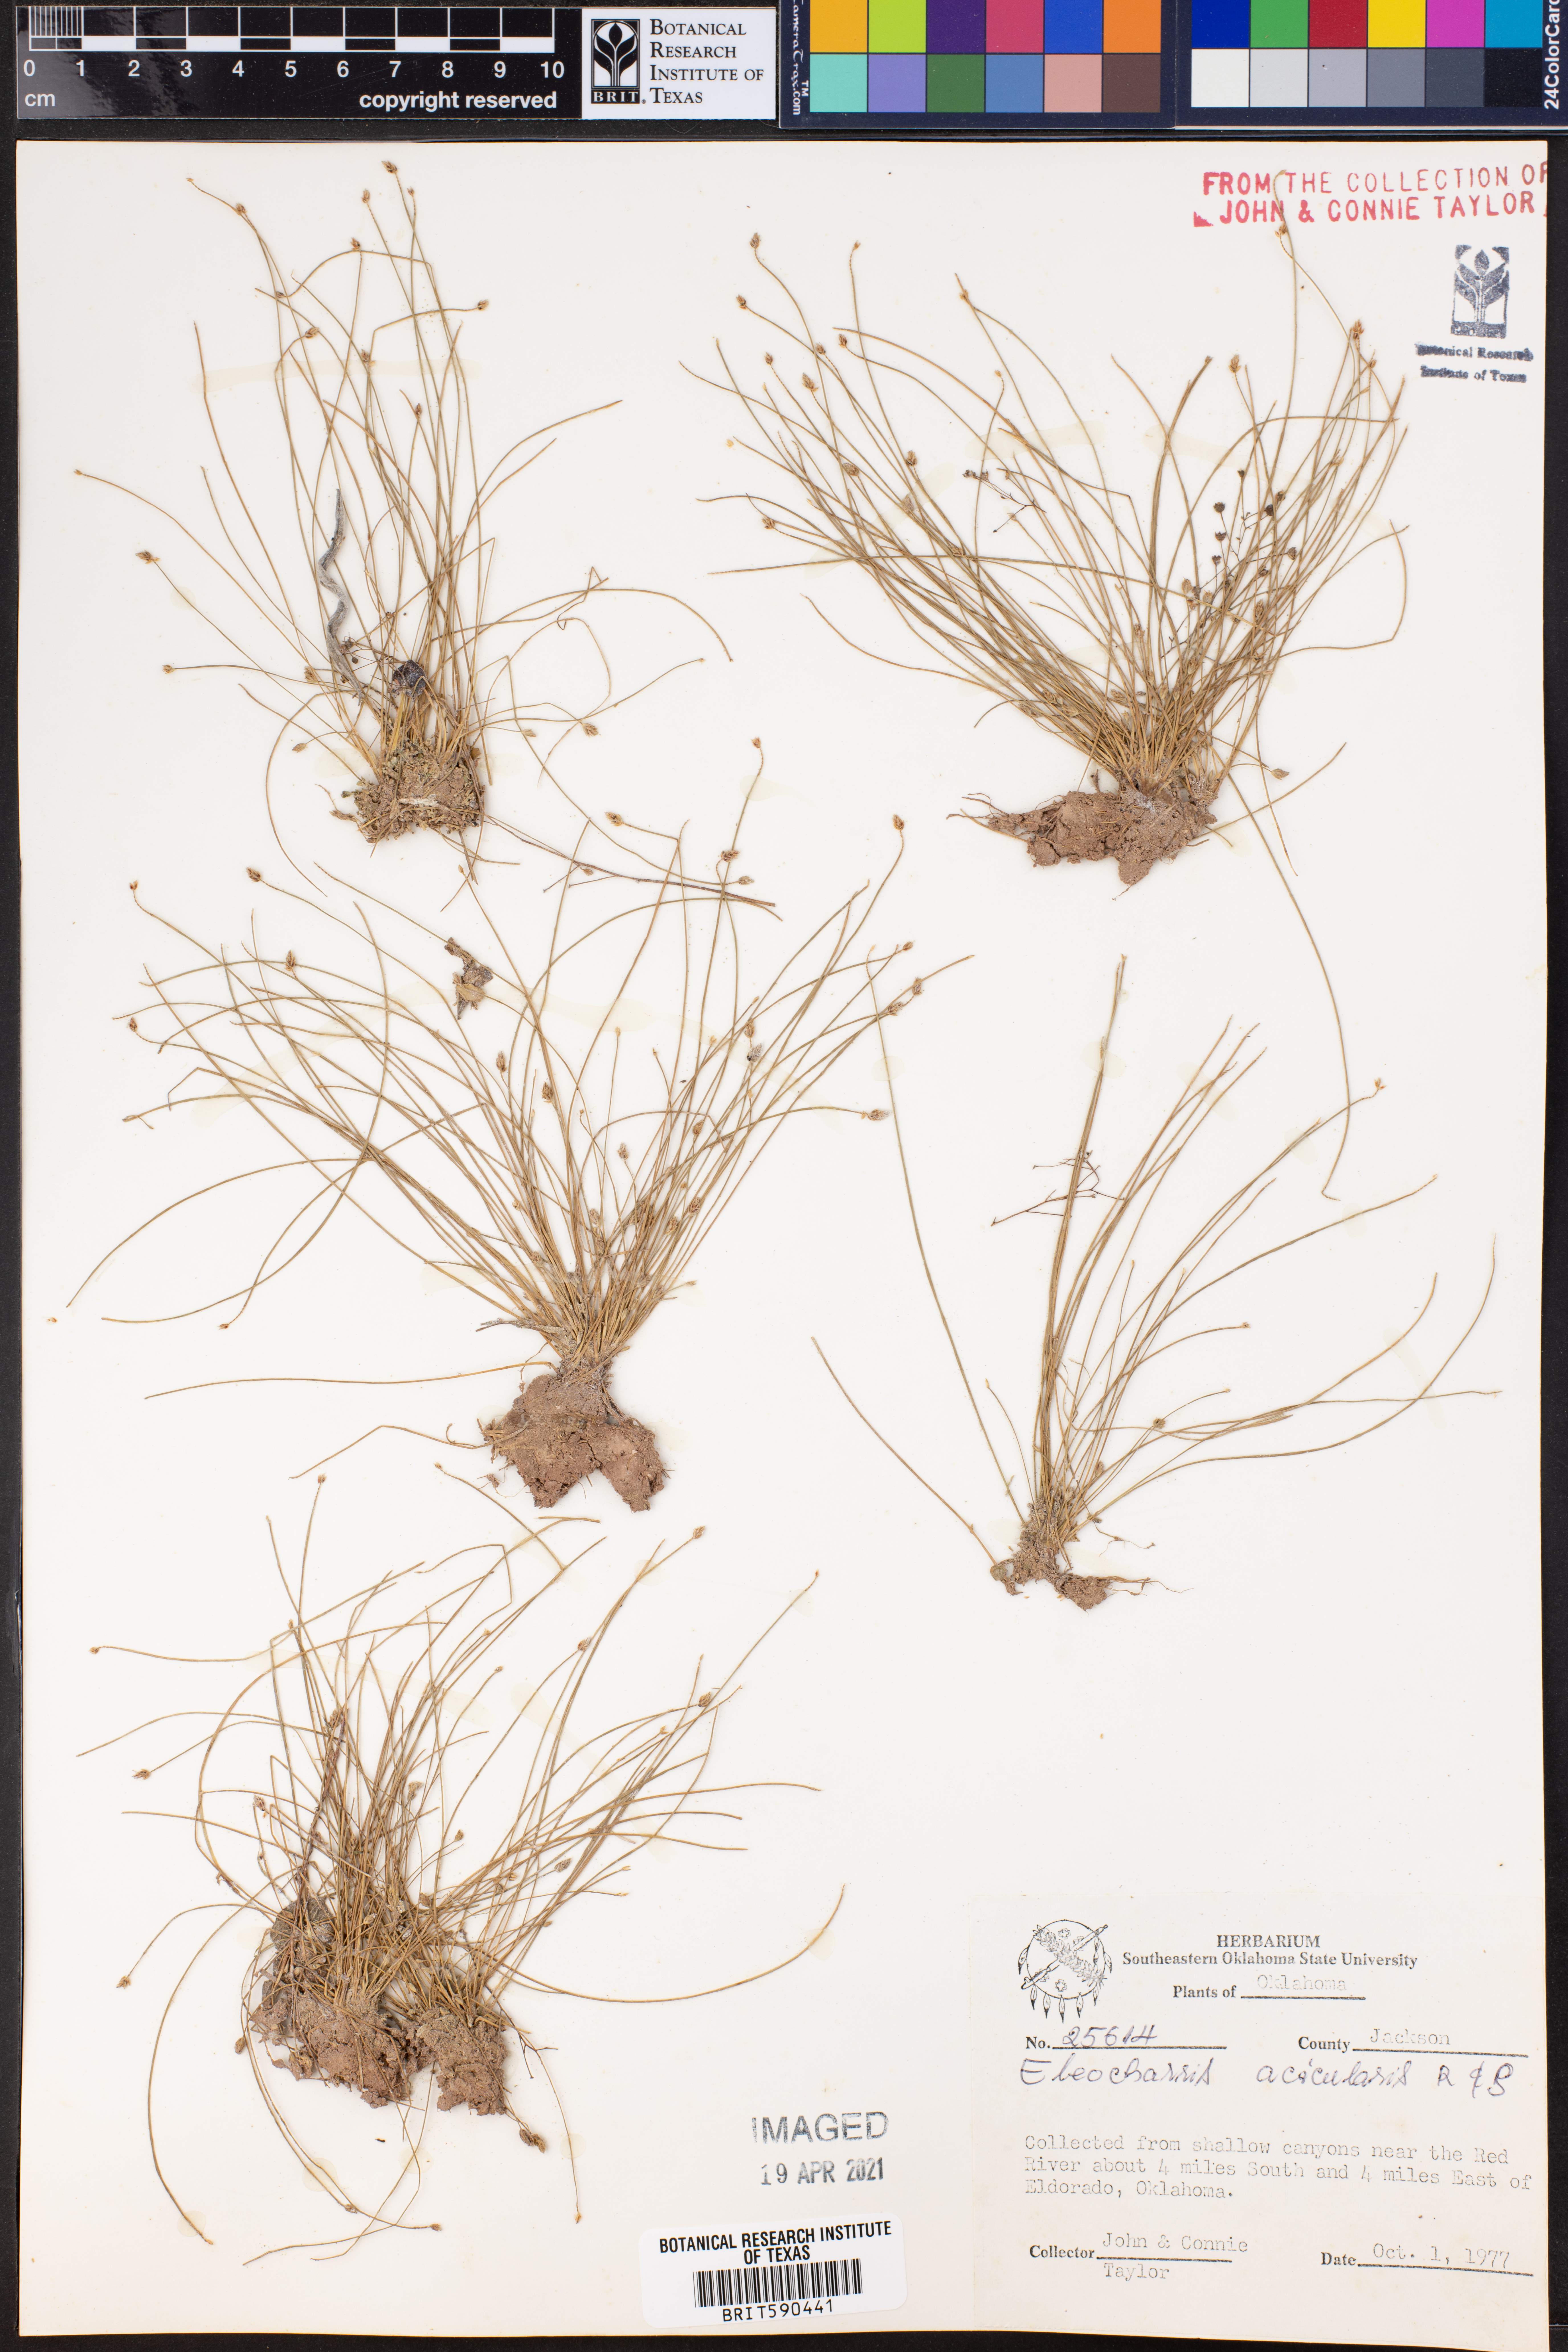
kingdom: Plantae
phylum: Tracheophyta
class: Liliopsida
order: Poales
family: Cyperaceae
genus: Eleocharis
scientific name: Eleocharis acicularis
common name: Needle spike-rush
